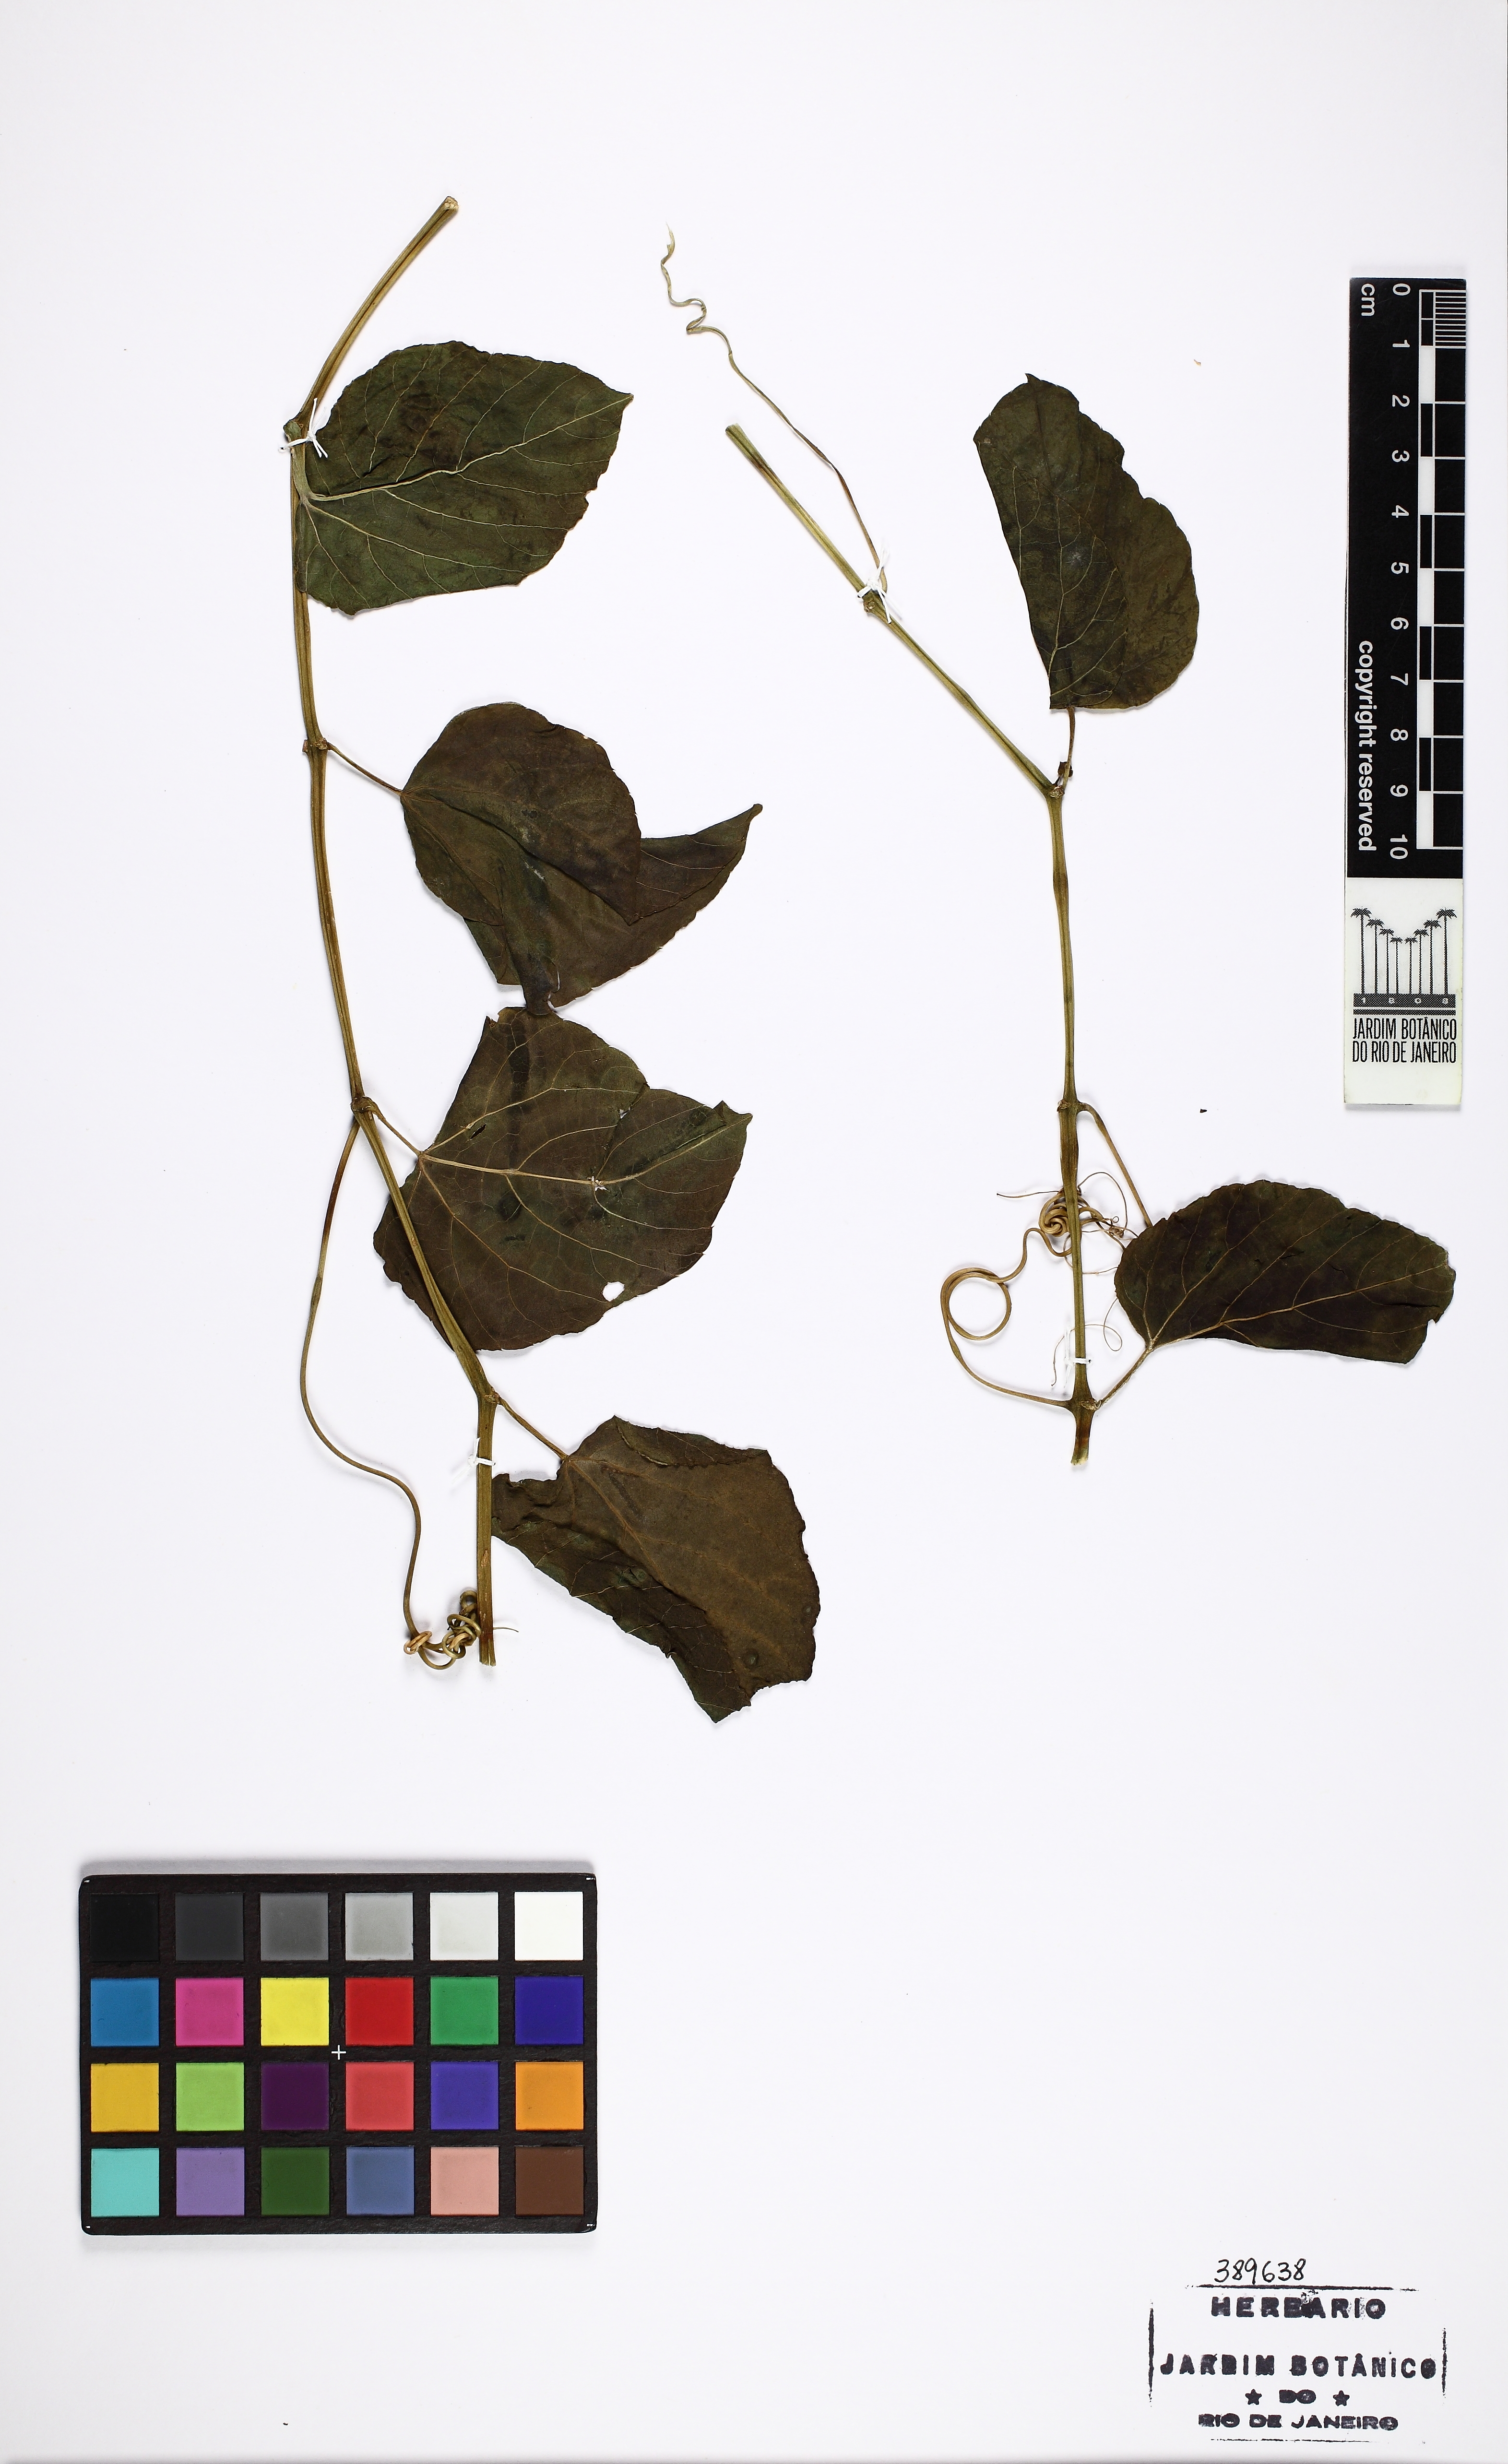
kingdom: Plantae
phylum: Tracheophyta
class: Magnoliopsida
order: Vitales
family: Vitaceae
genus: Cissus
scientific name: Cissus verticillata
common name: Princess vine
